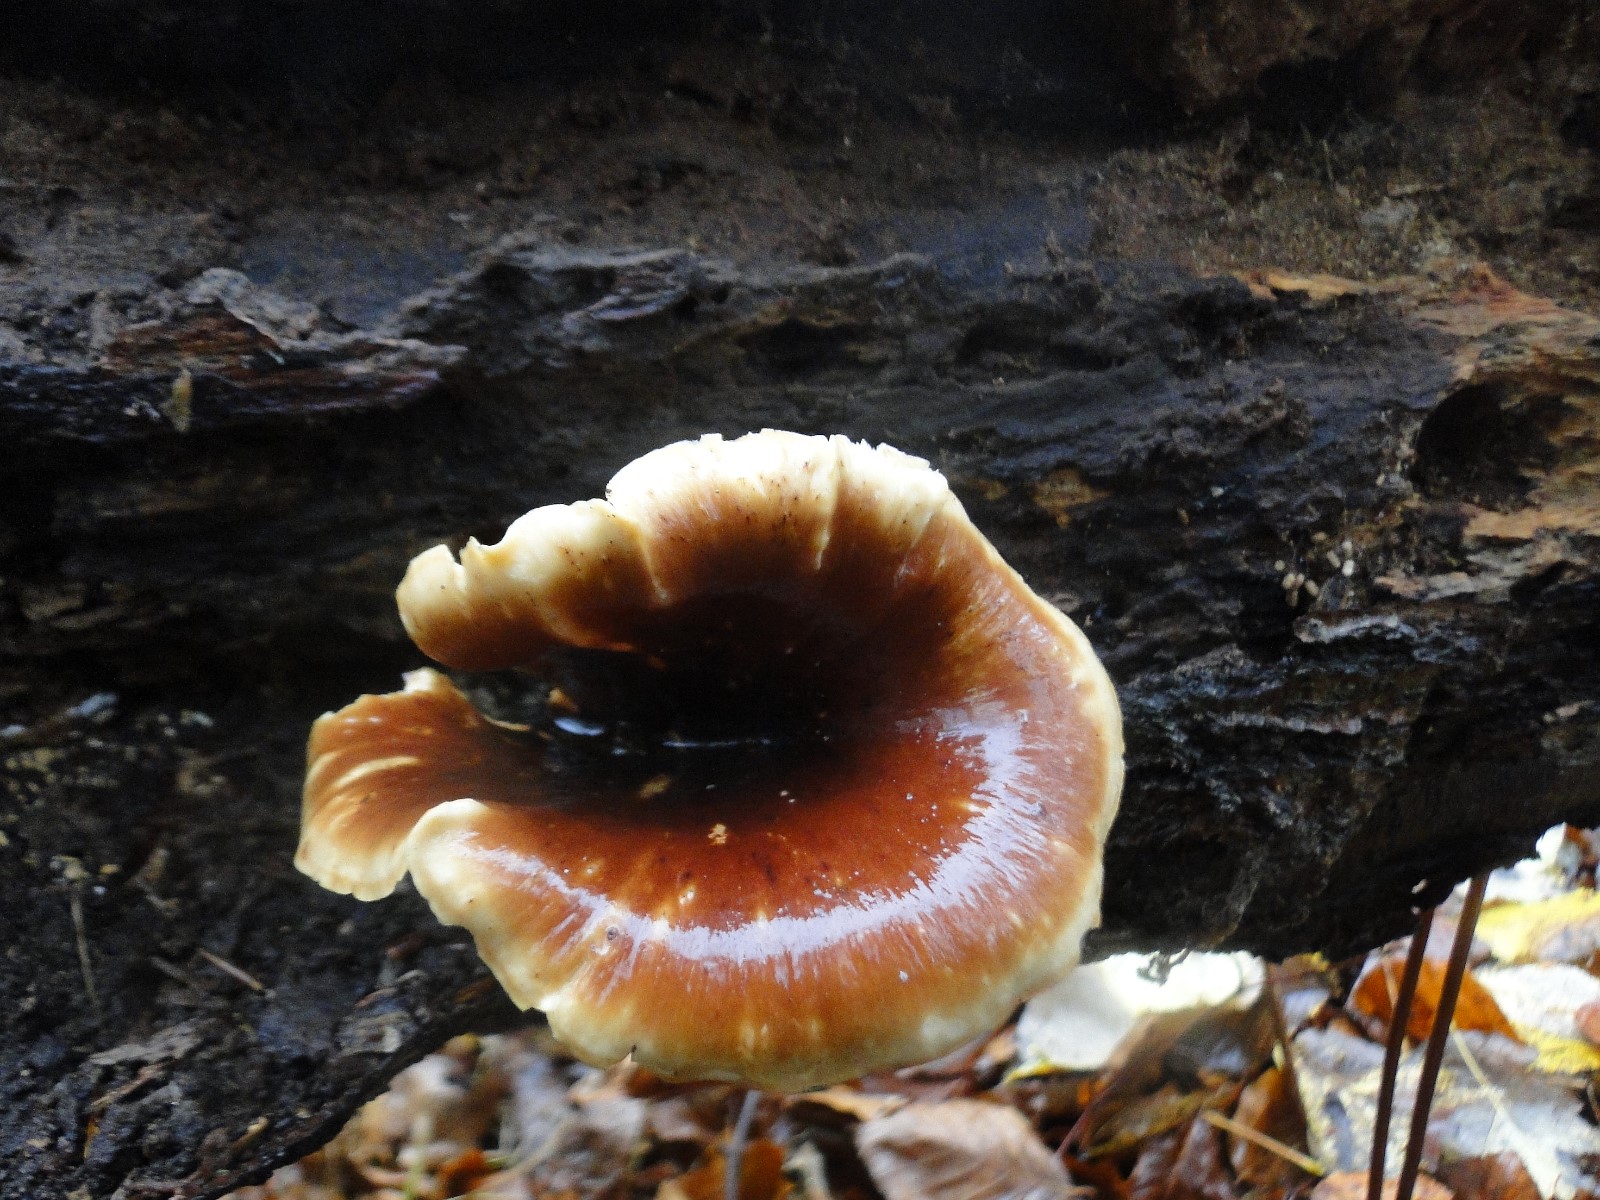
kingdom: Fungi
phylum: Basidiomycota
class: Agaricomycetes
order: Polyporales
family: Polyporaceae
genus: Picipes
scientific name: Picipes badius
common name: kastaniebrun stilkporesvamp
